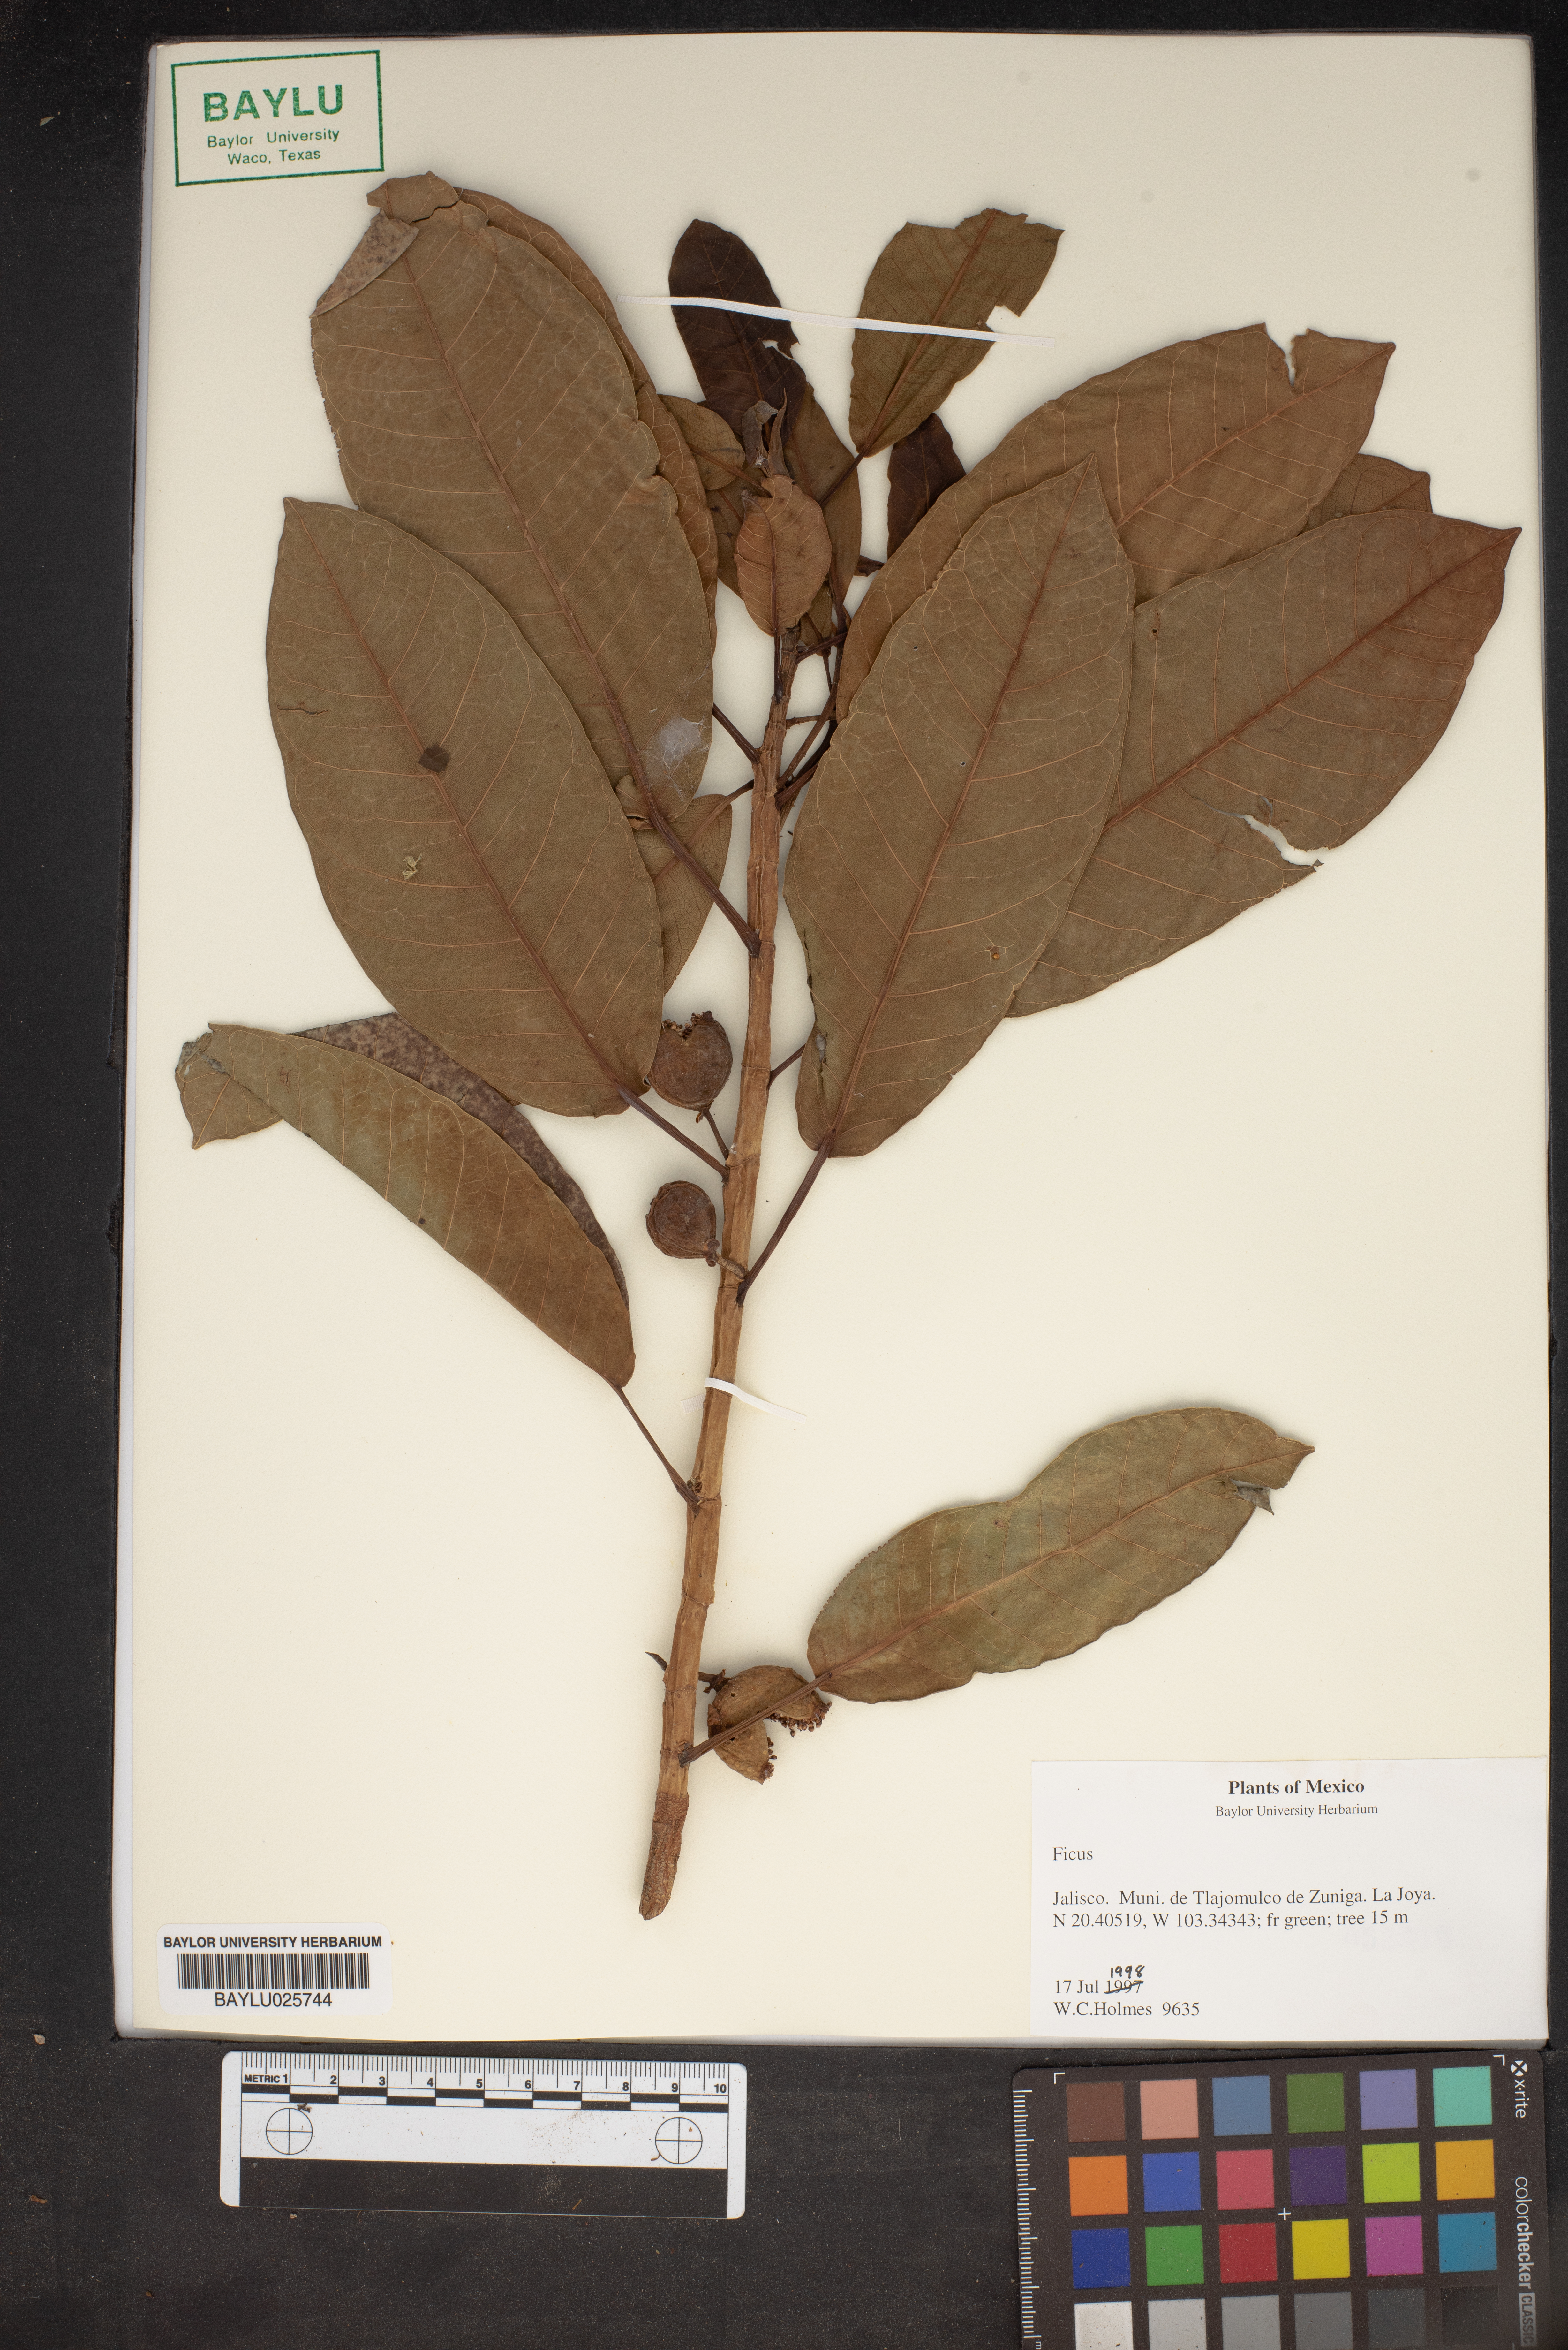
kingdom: Plantae
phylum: Tracheophyta
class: Magnoliopsida
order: Rosales
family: Moraceae
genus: Ficus
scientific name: Ficus
